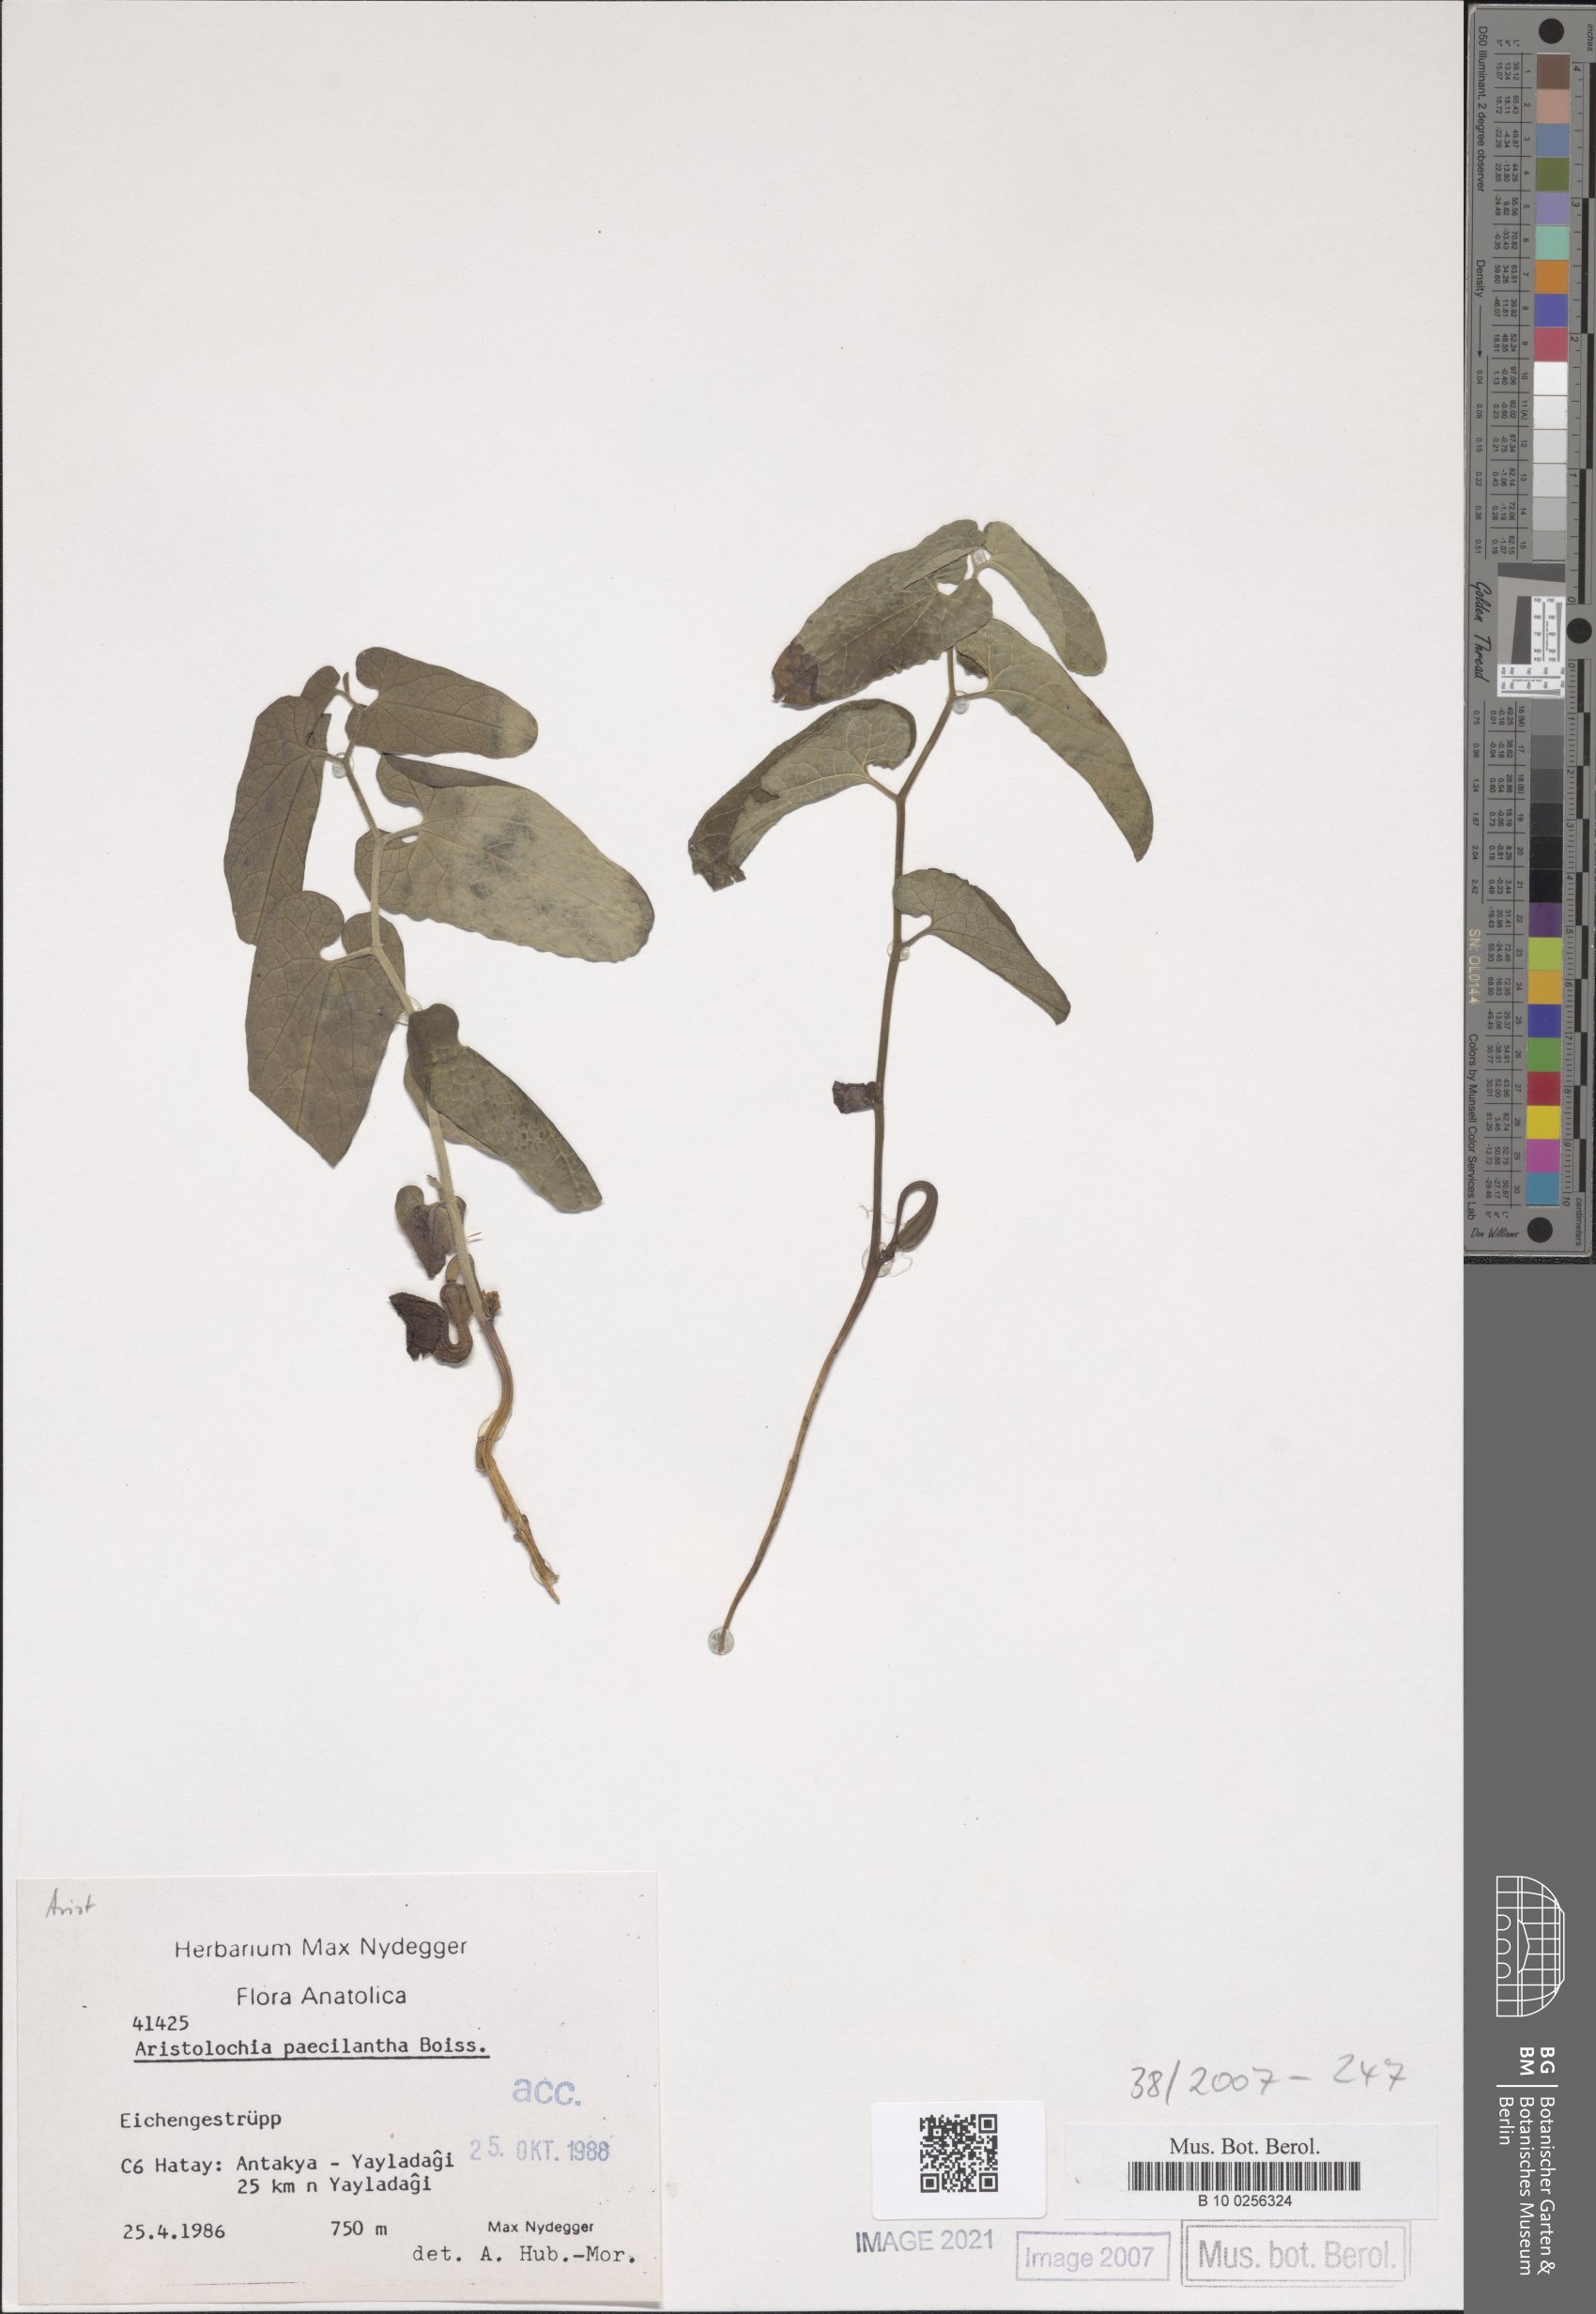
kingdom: Plantae
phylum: Tracheophyta
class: Magnoliopsida
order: Piperales
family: Aristolochiaceae
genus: Aristolochia
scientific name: Aristolochia paecilantha
